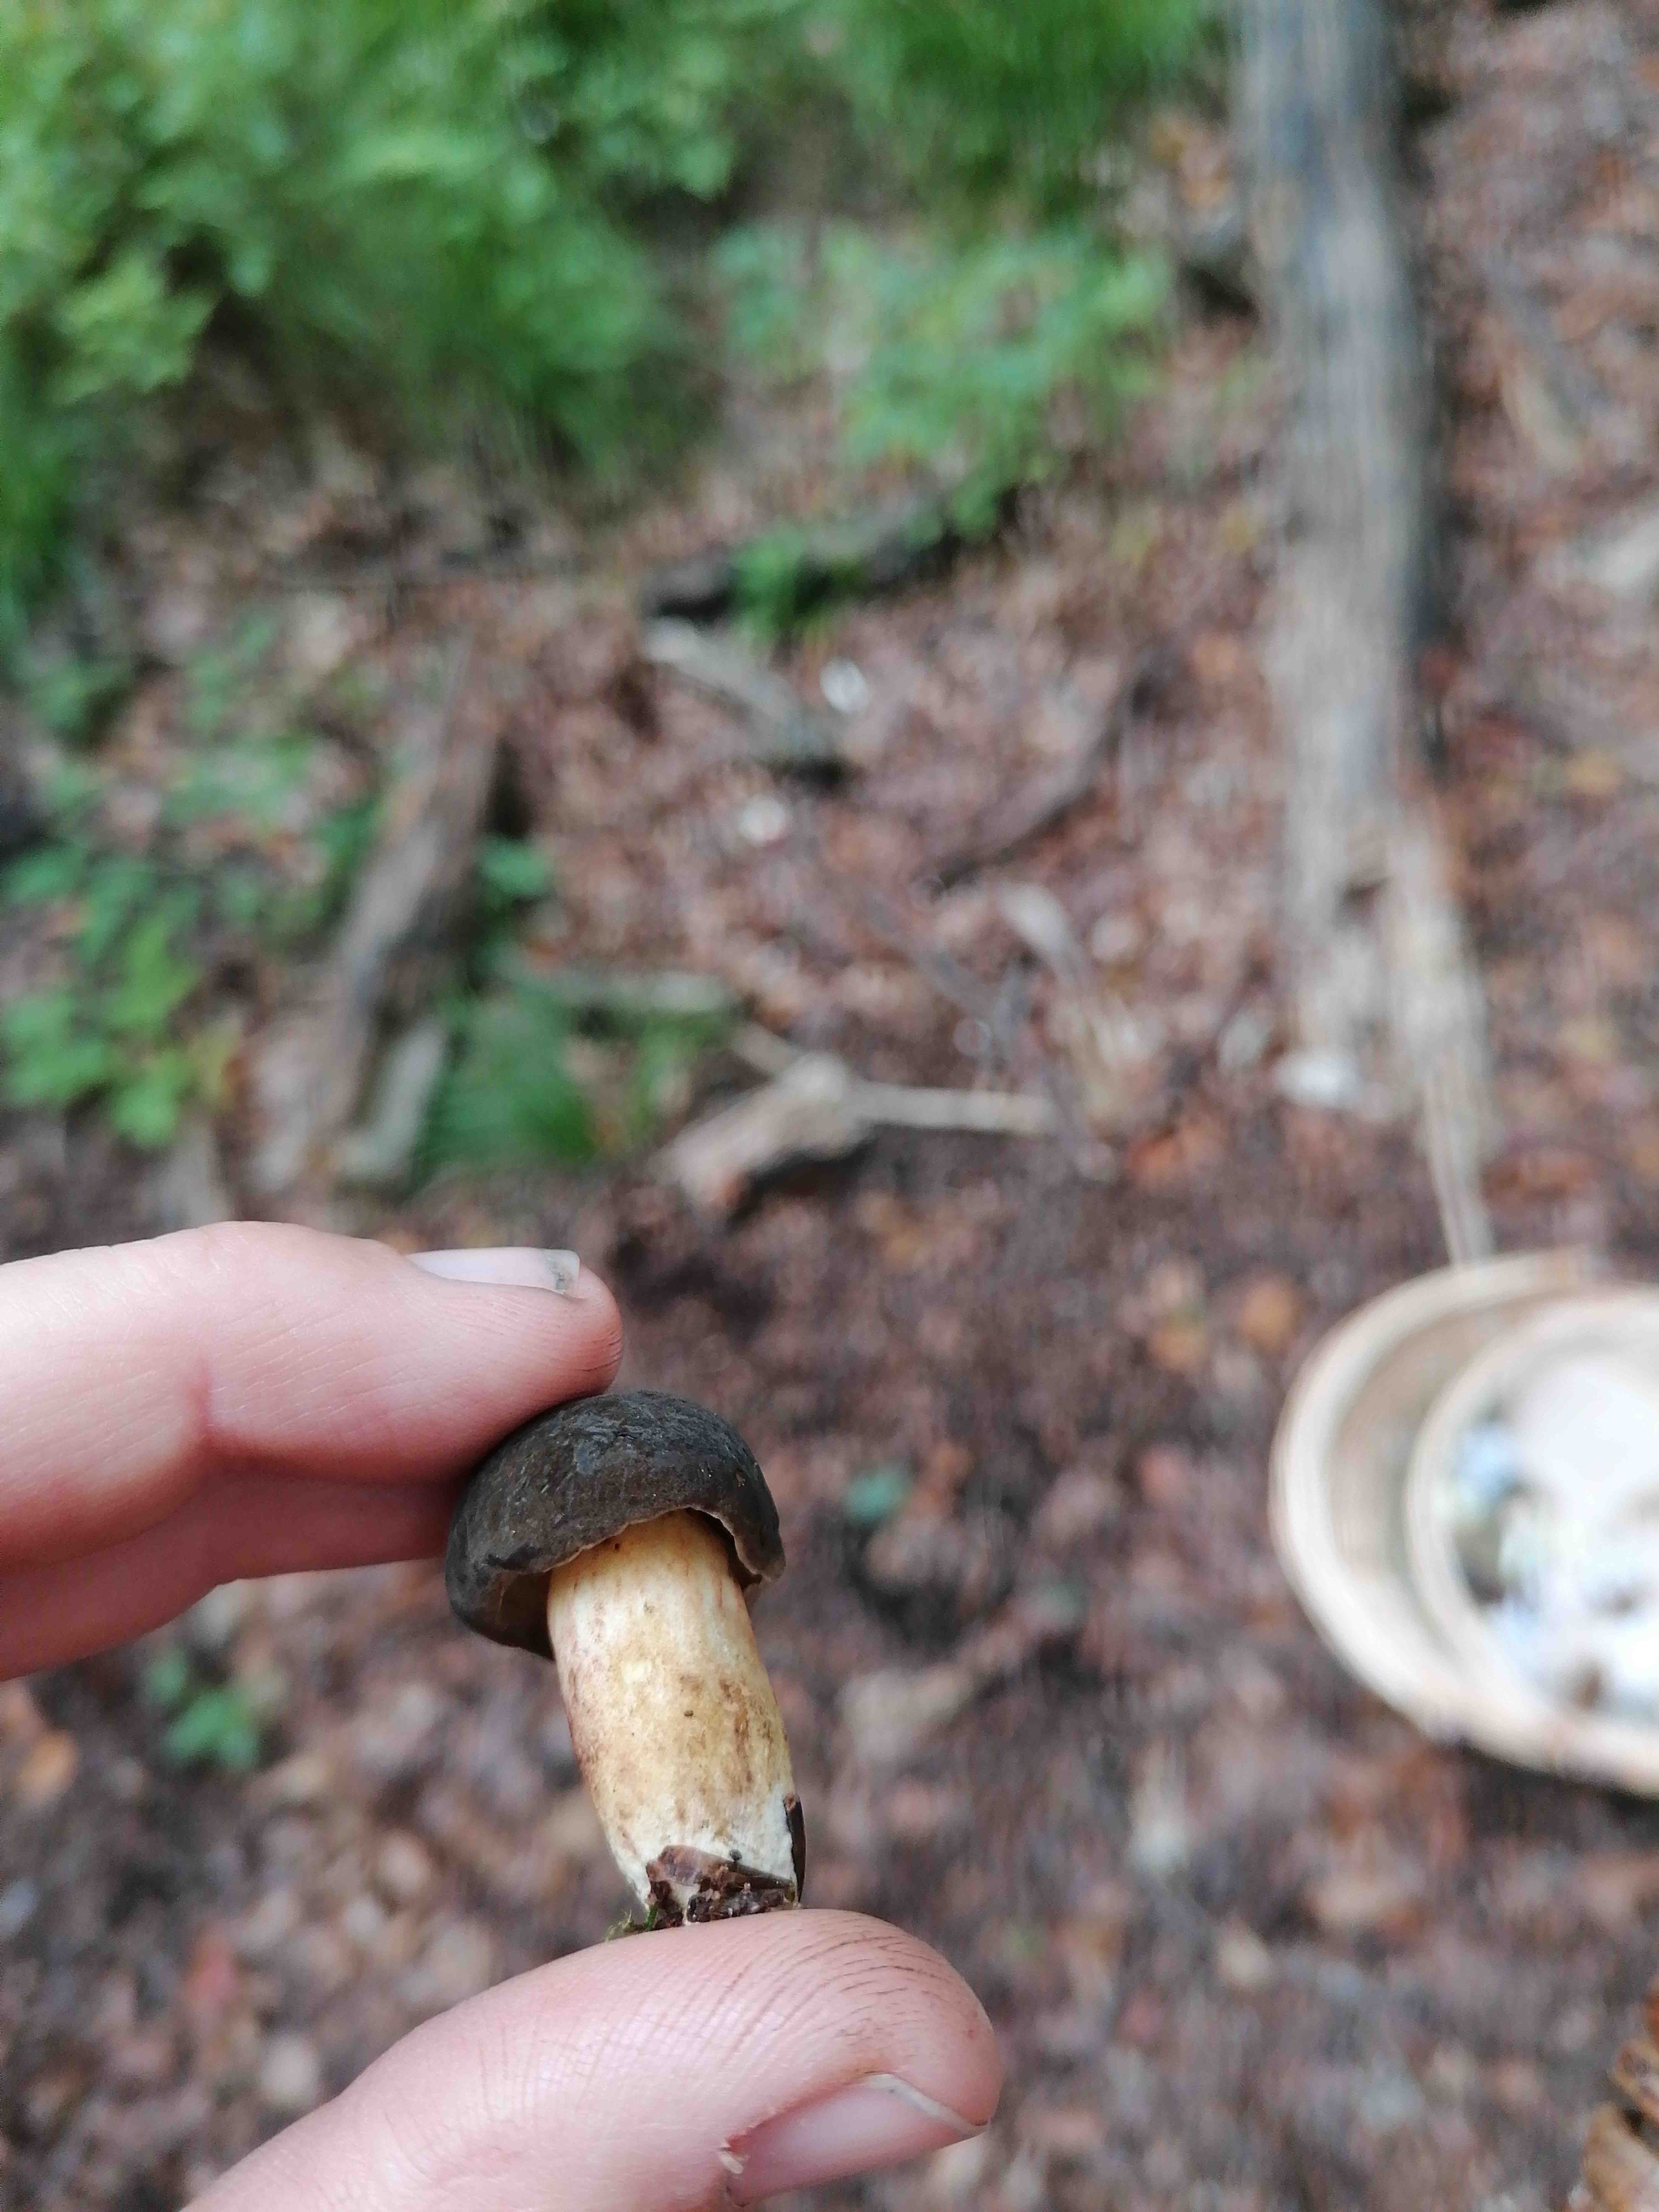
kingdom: Fungi
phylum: Basidiomycota
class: Agaricomycetes
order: Boletales
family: Boletaceae
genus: Xerocomellus
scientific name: Xerocomellus
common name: dværgrørhat
